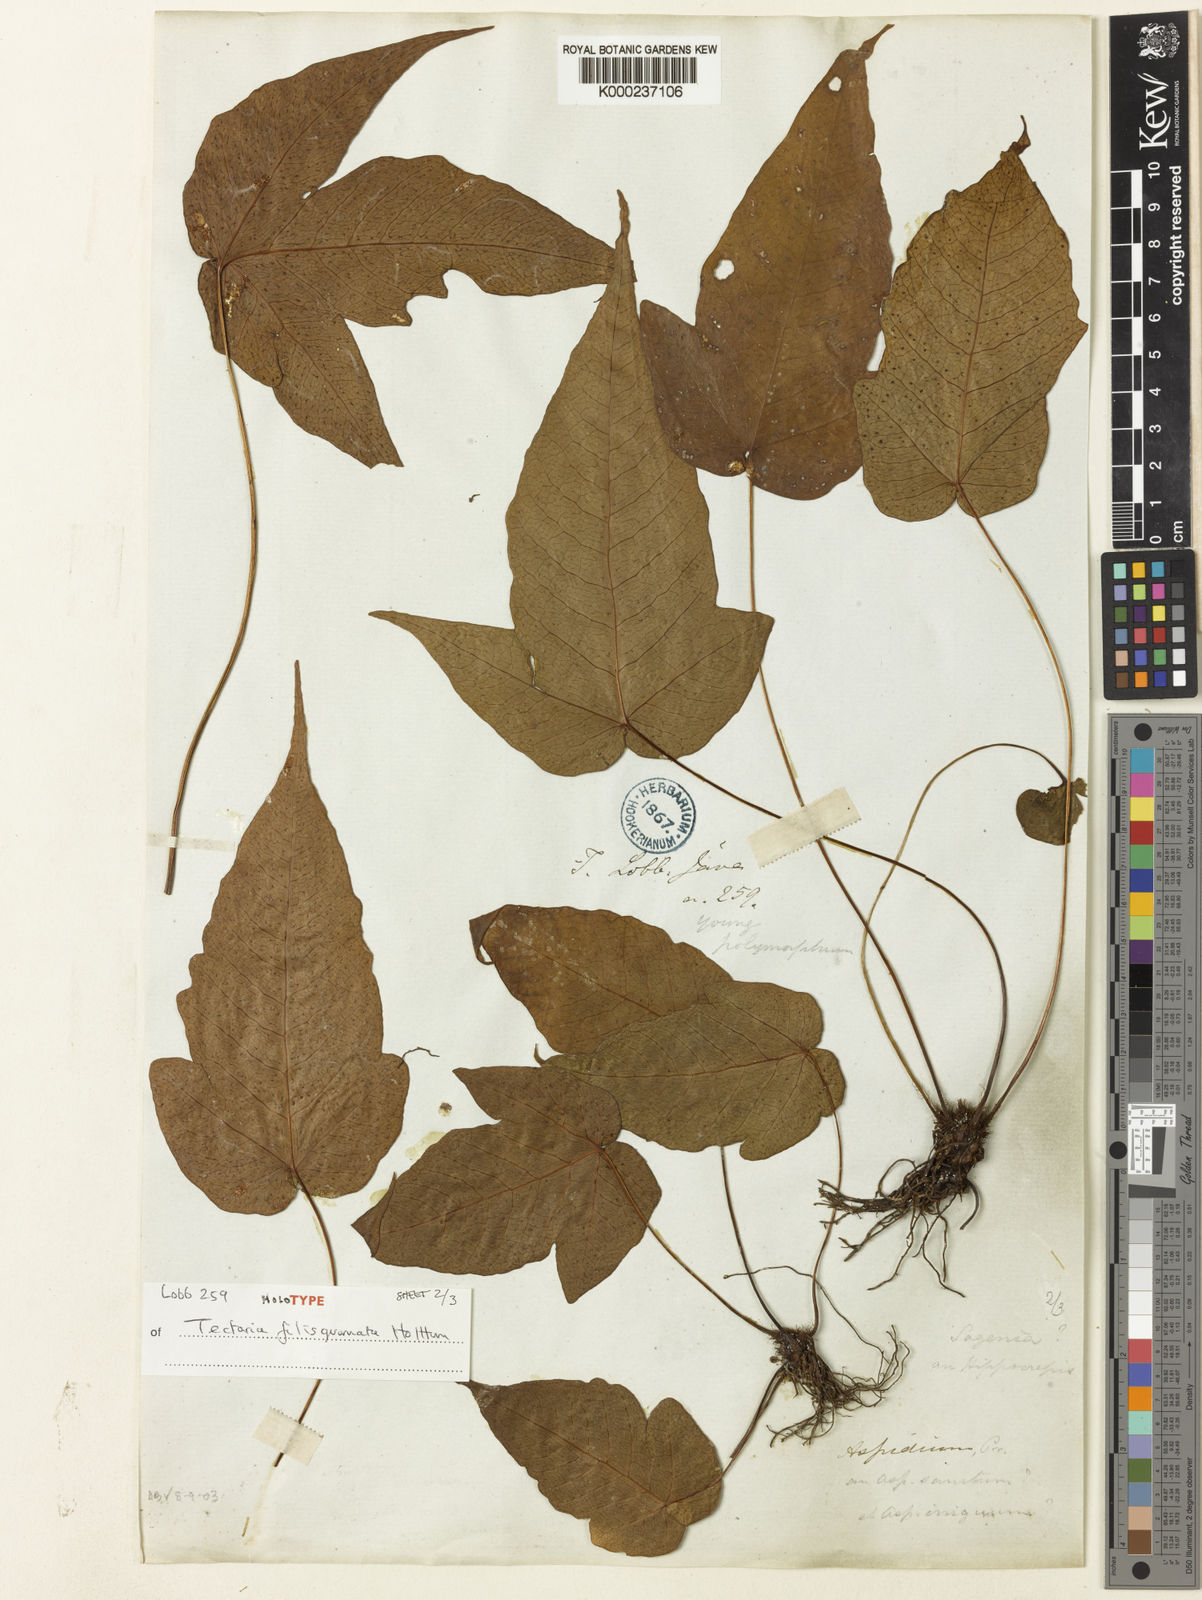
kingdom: Plantae
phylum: Tracheophyta
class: Polypodiopsida
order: Polypodiales
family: Tectariaceae
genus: Tectaria
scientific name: Tectaria filisquamata
